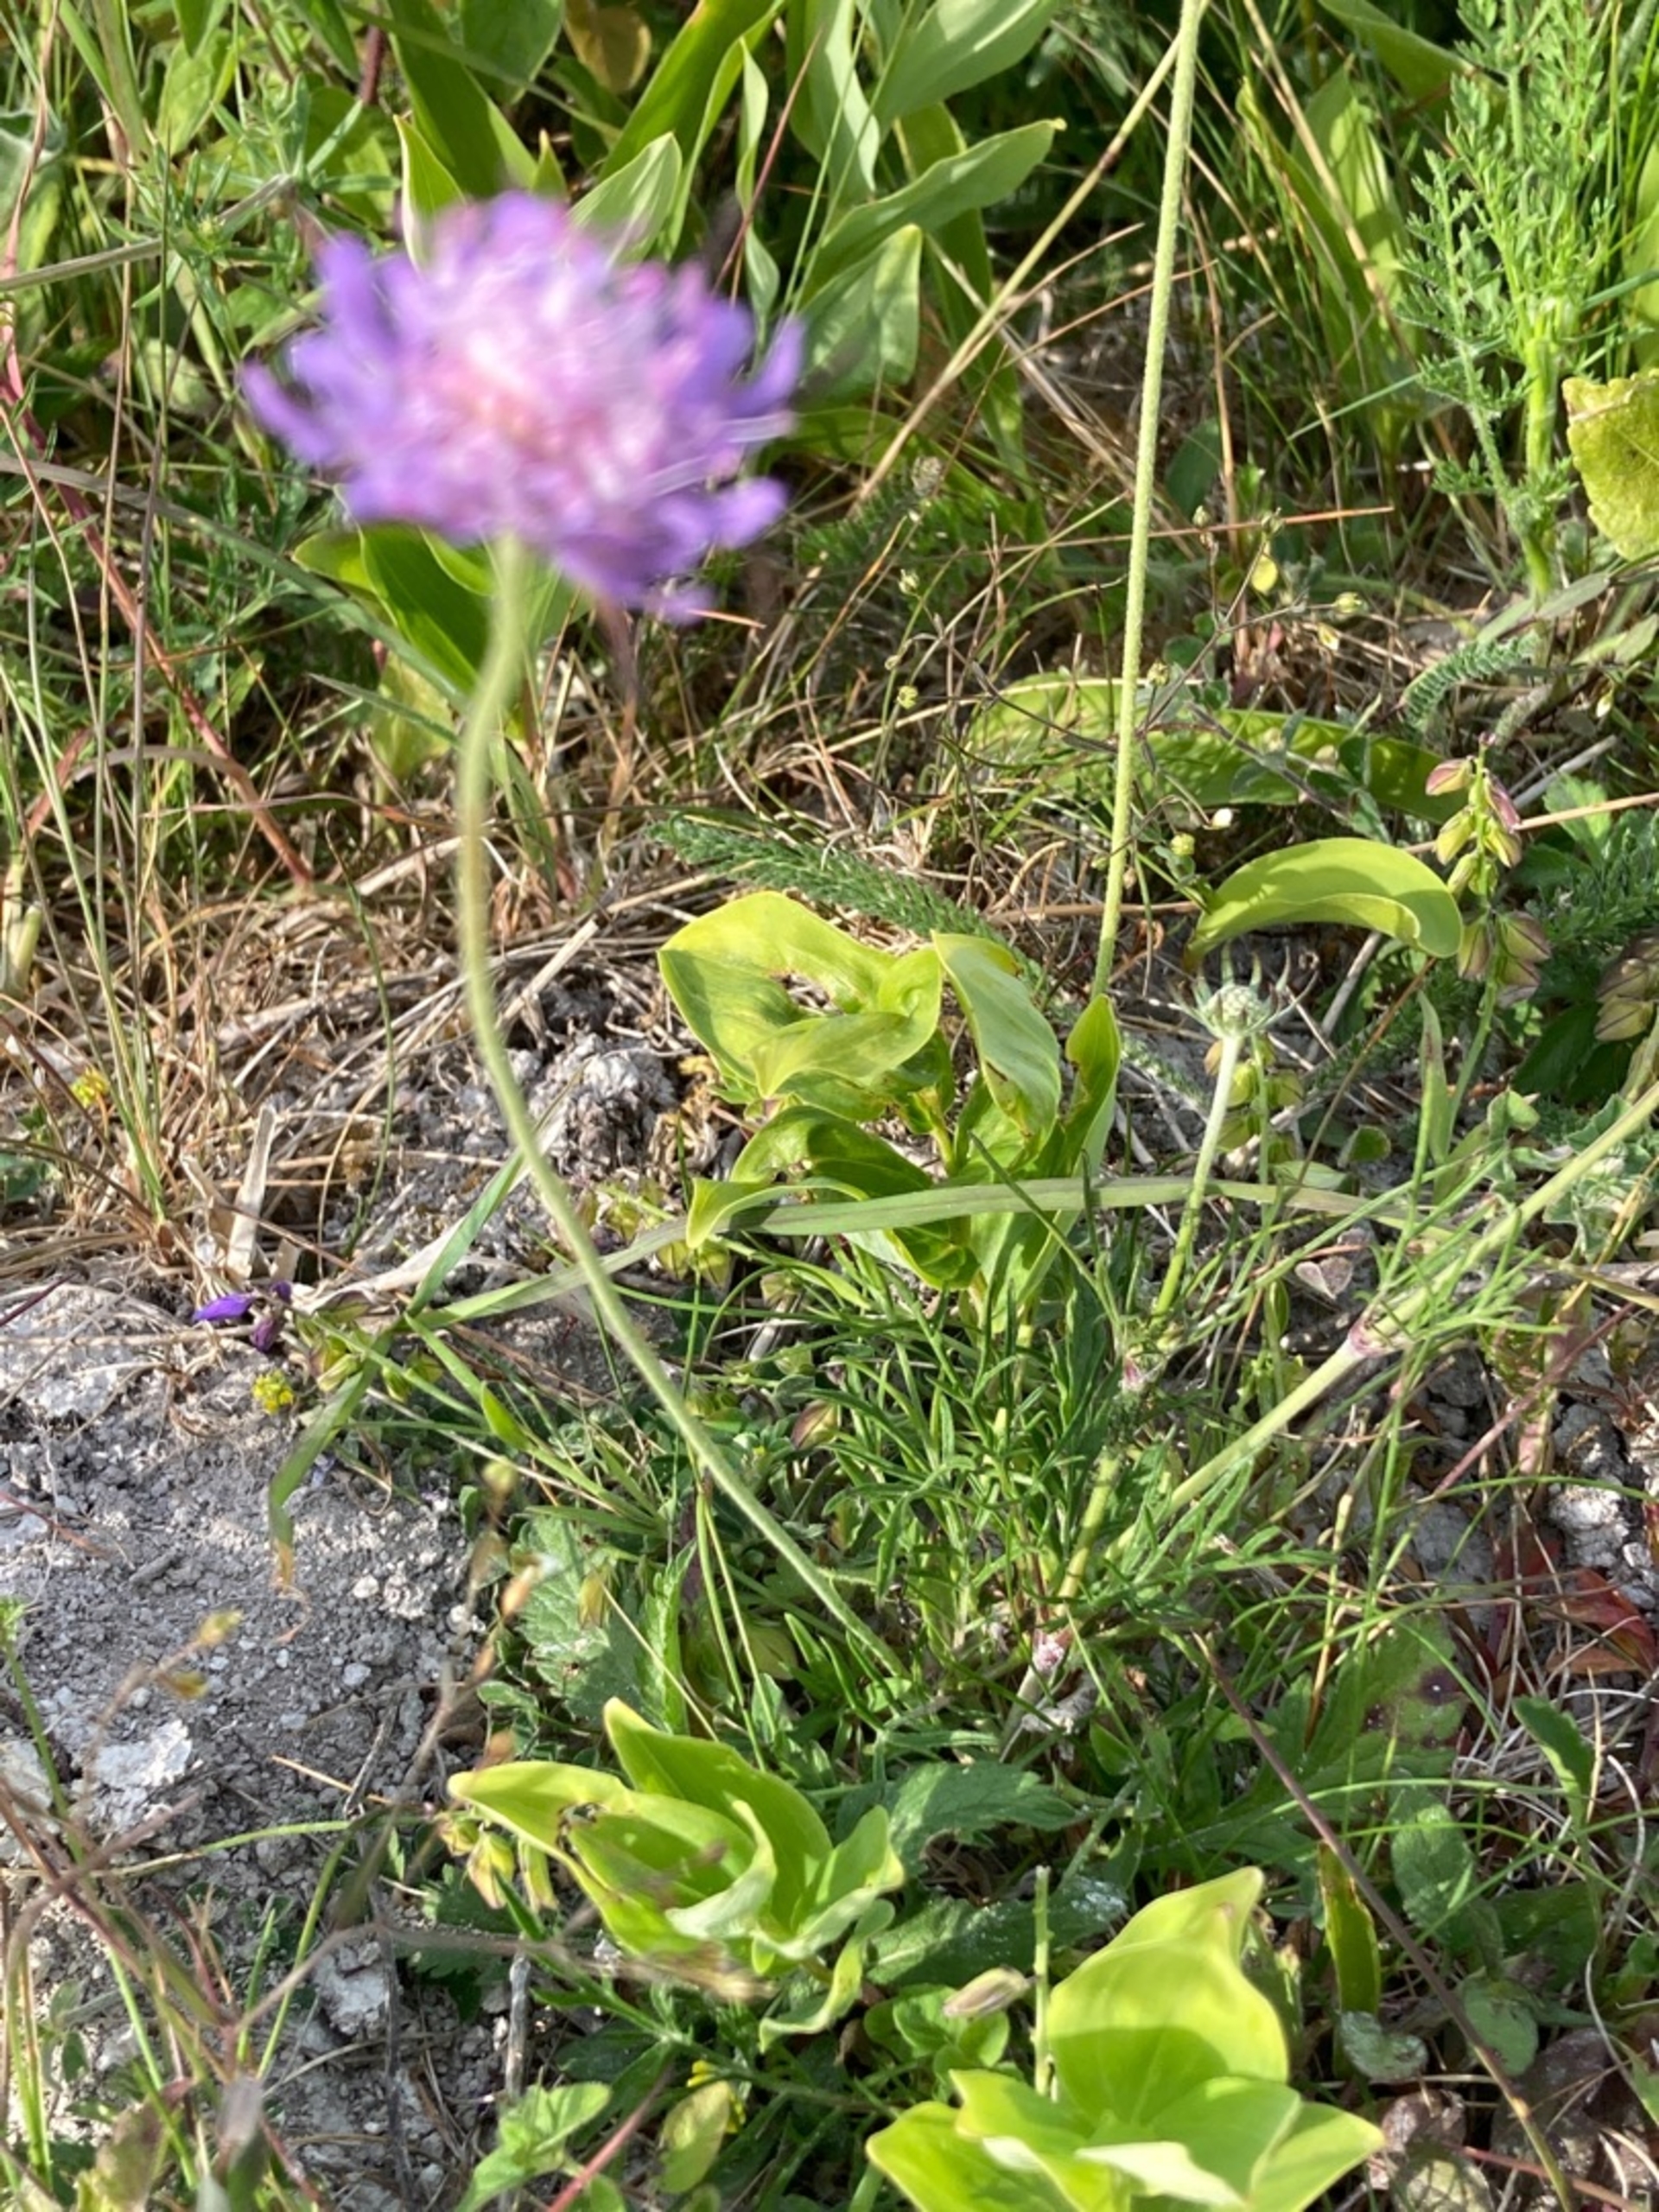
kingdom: Plantae
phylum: Tracheophyta
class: Magnoliopsida
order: Dipsacales
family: Caprifoliaceae
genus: Scabiosa
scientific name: Scabiosa columbaria
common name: Due-skabiose
